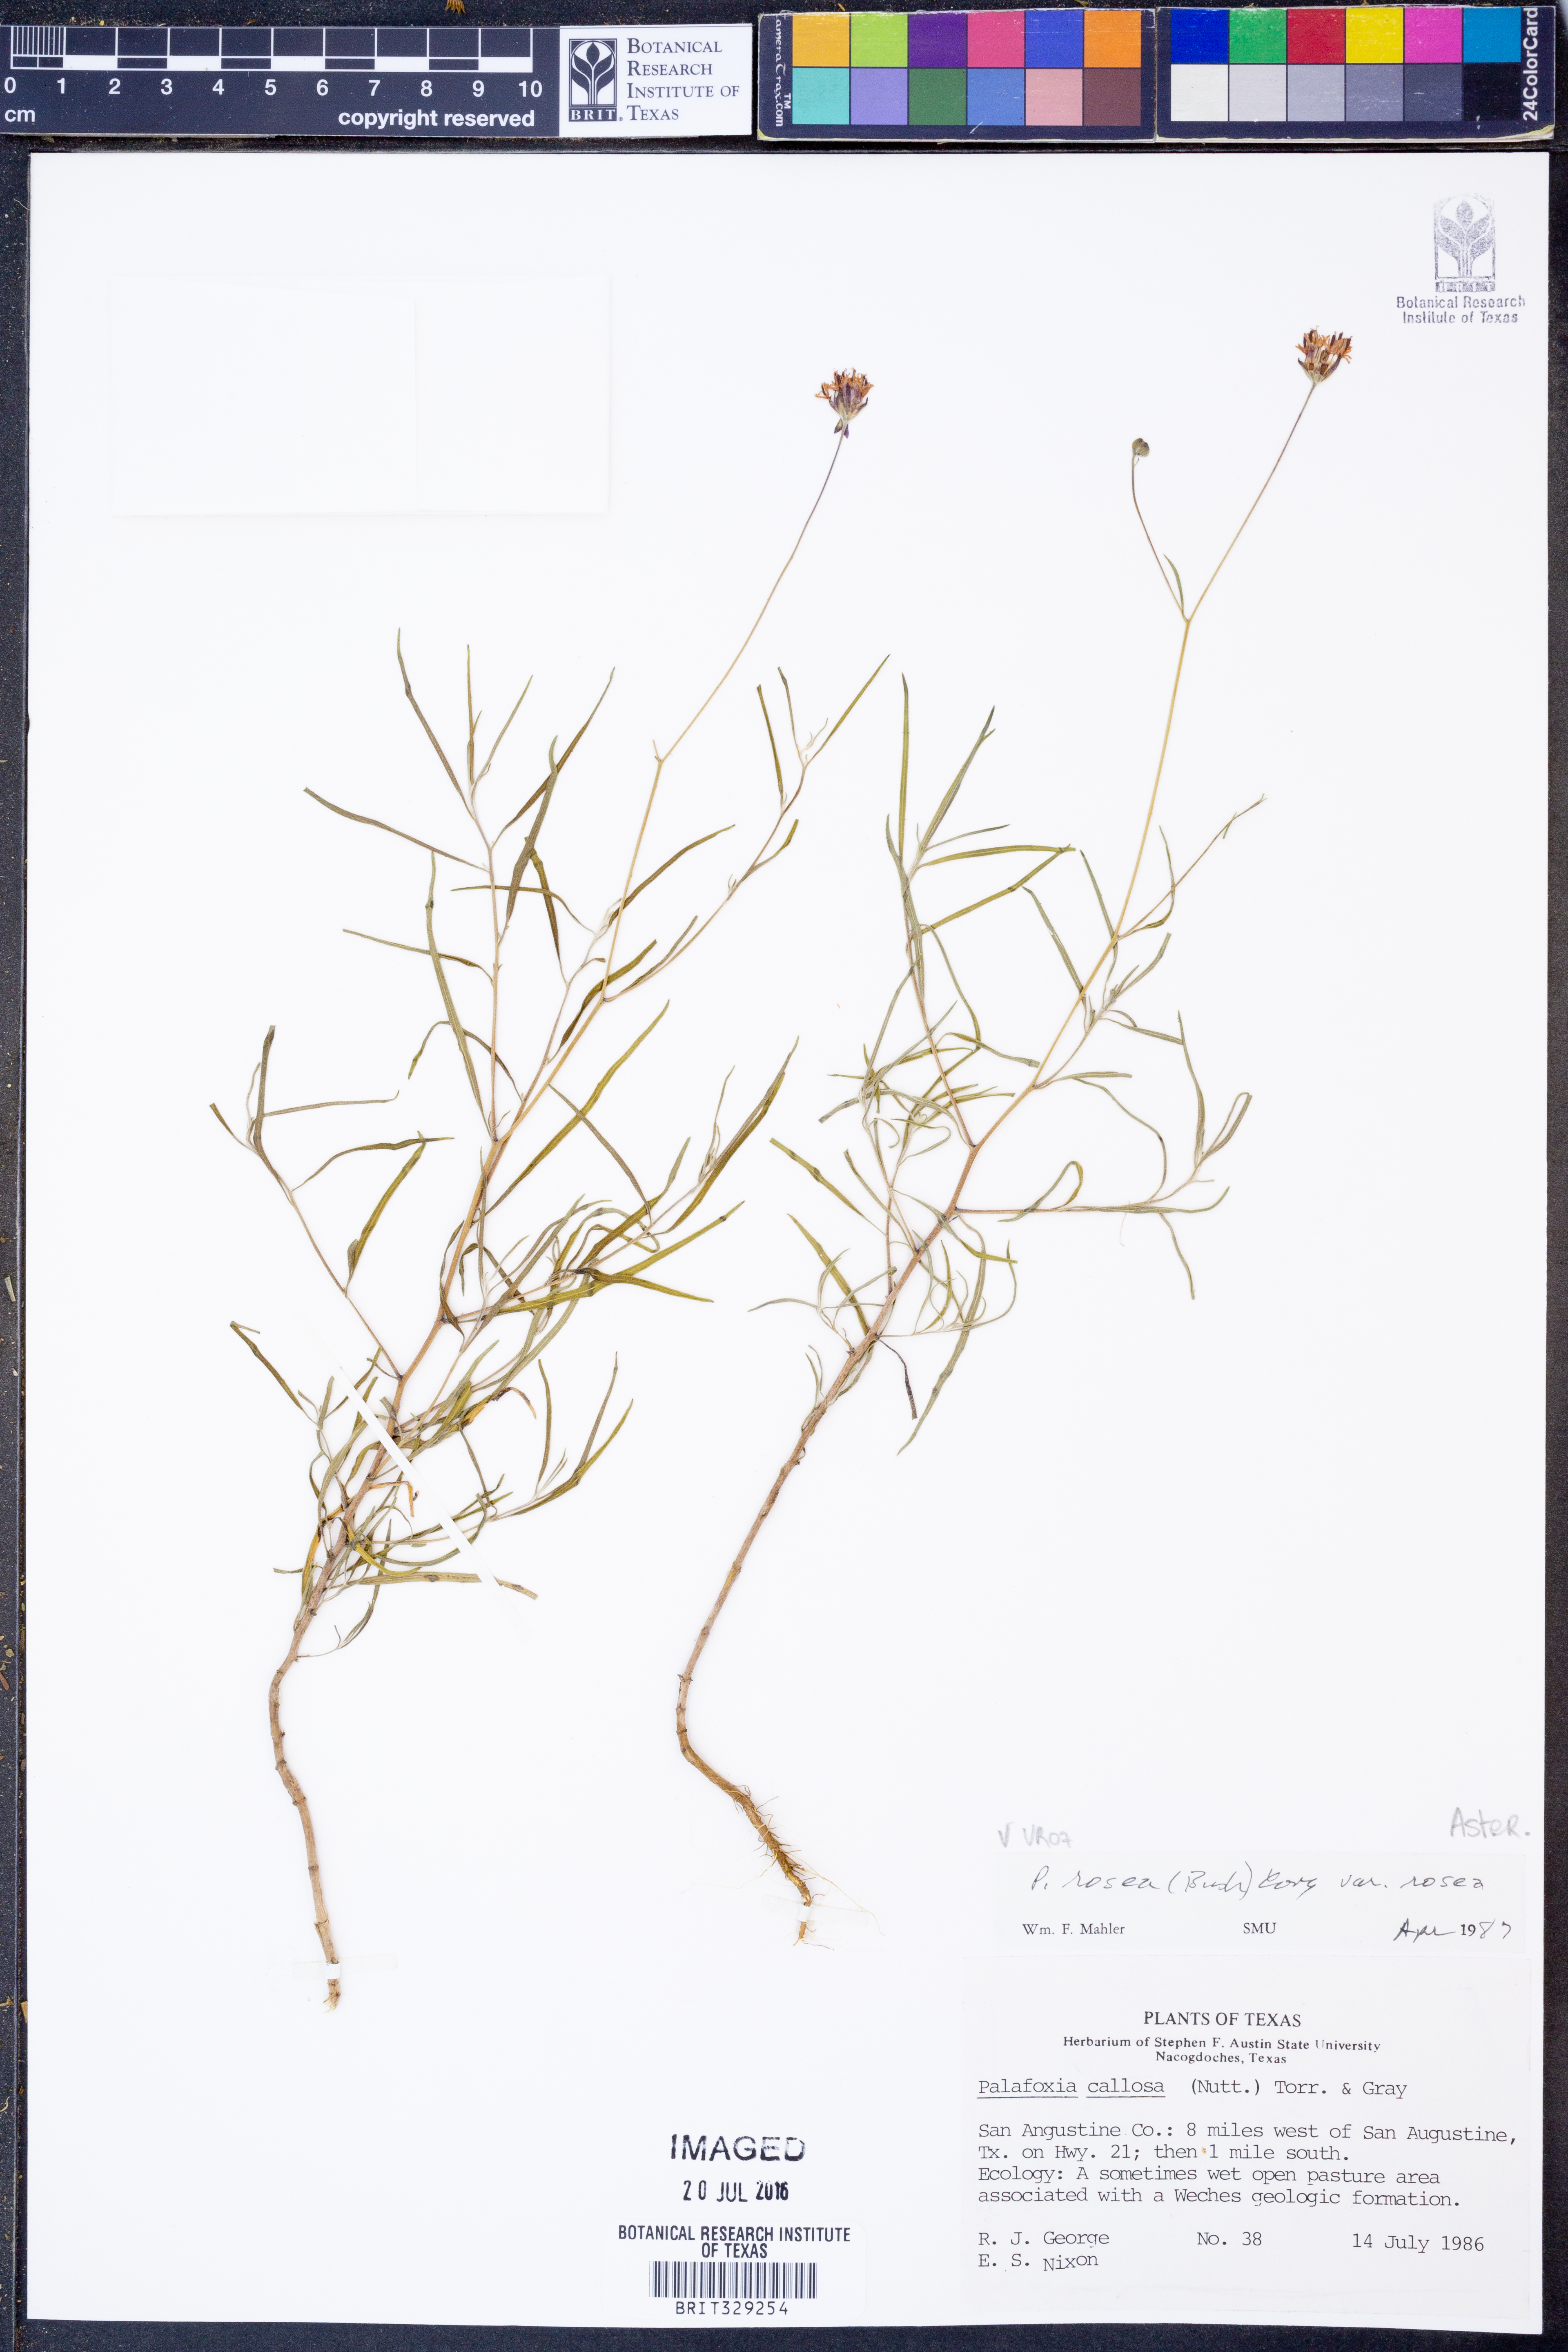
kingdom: Plantae
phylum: Tracheophyta
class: Magnoliopsida
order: Asterales
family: Asteraceae
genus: Palafoxia
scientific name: Palafoxia rosea
